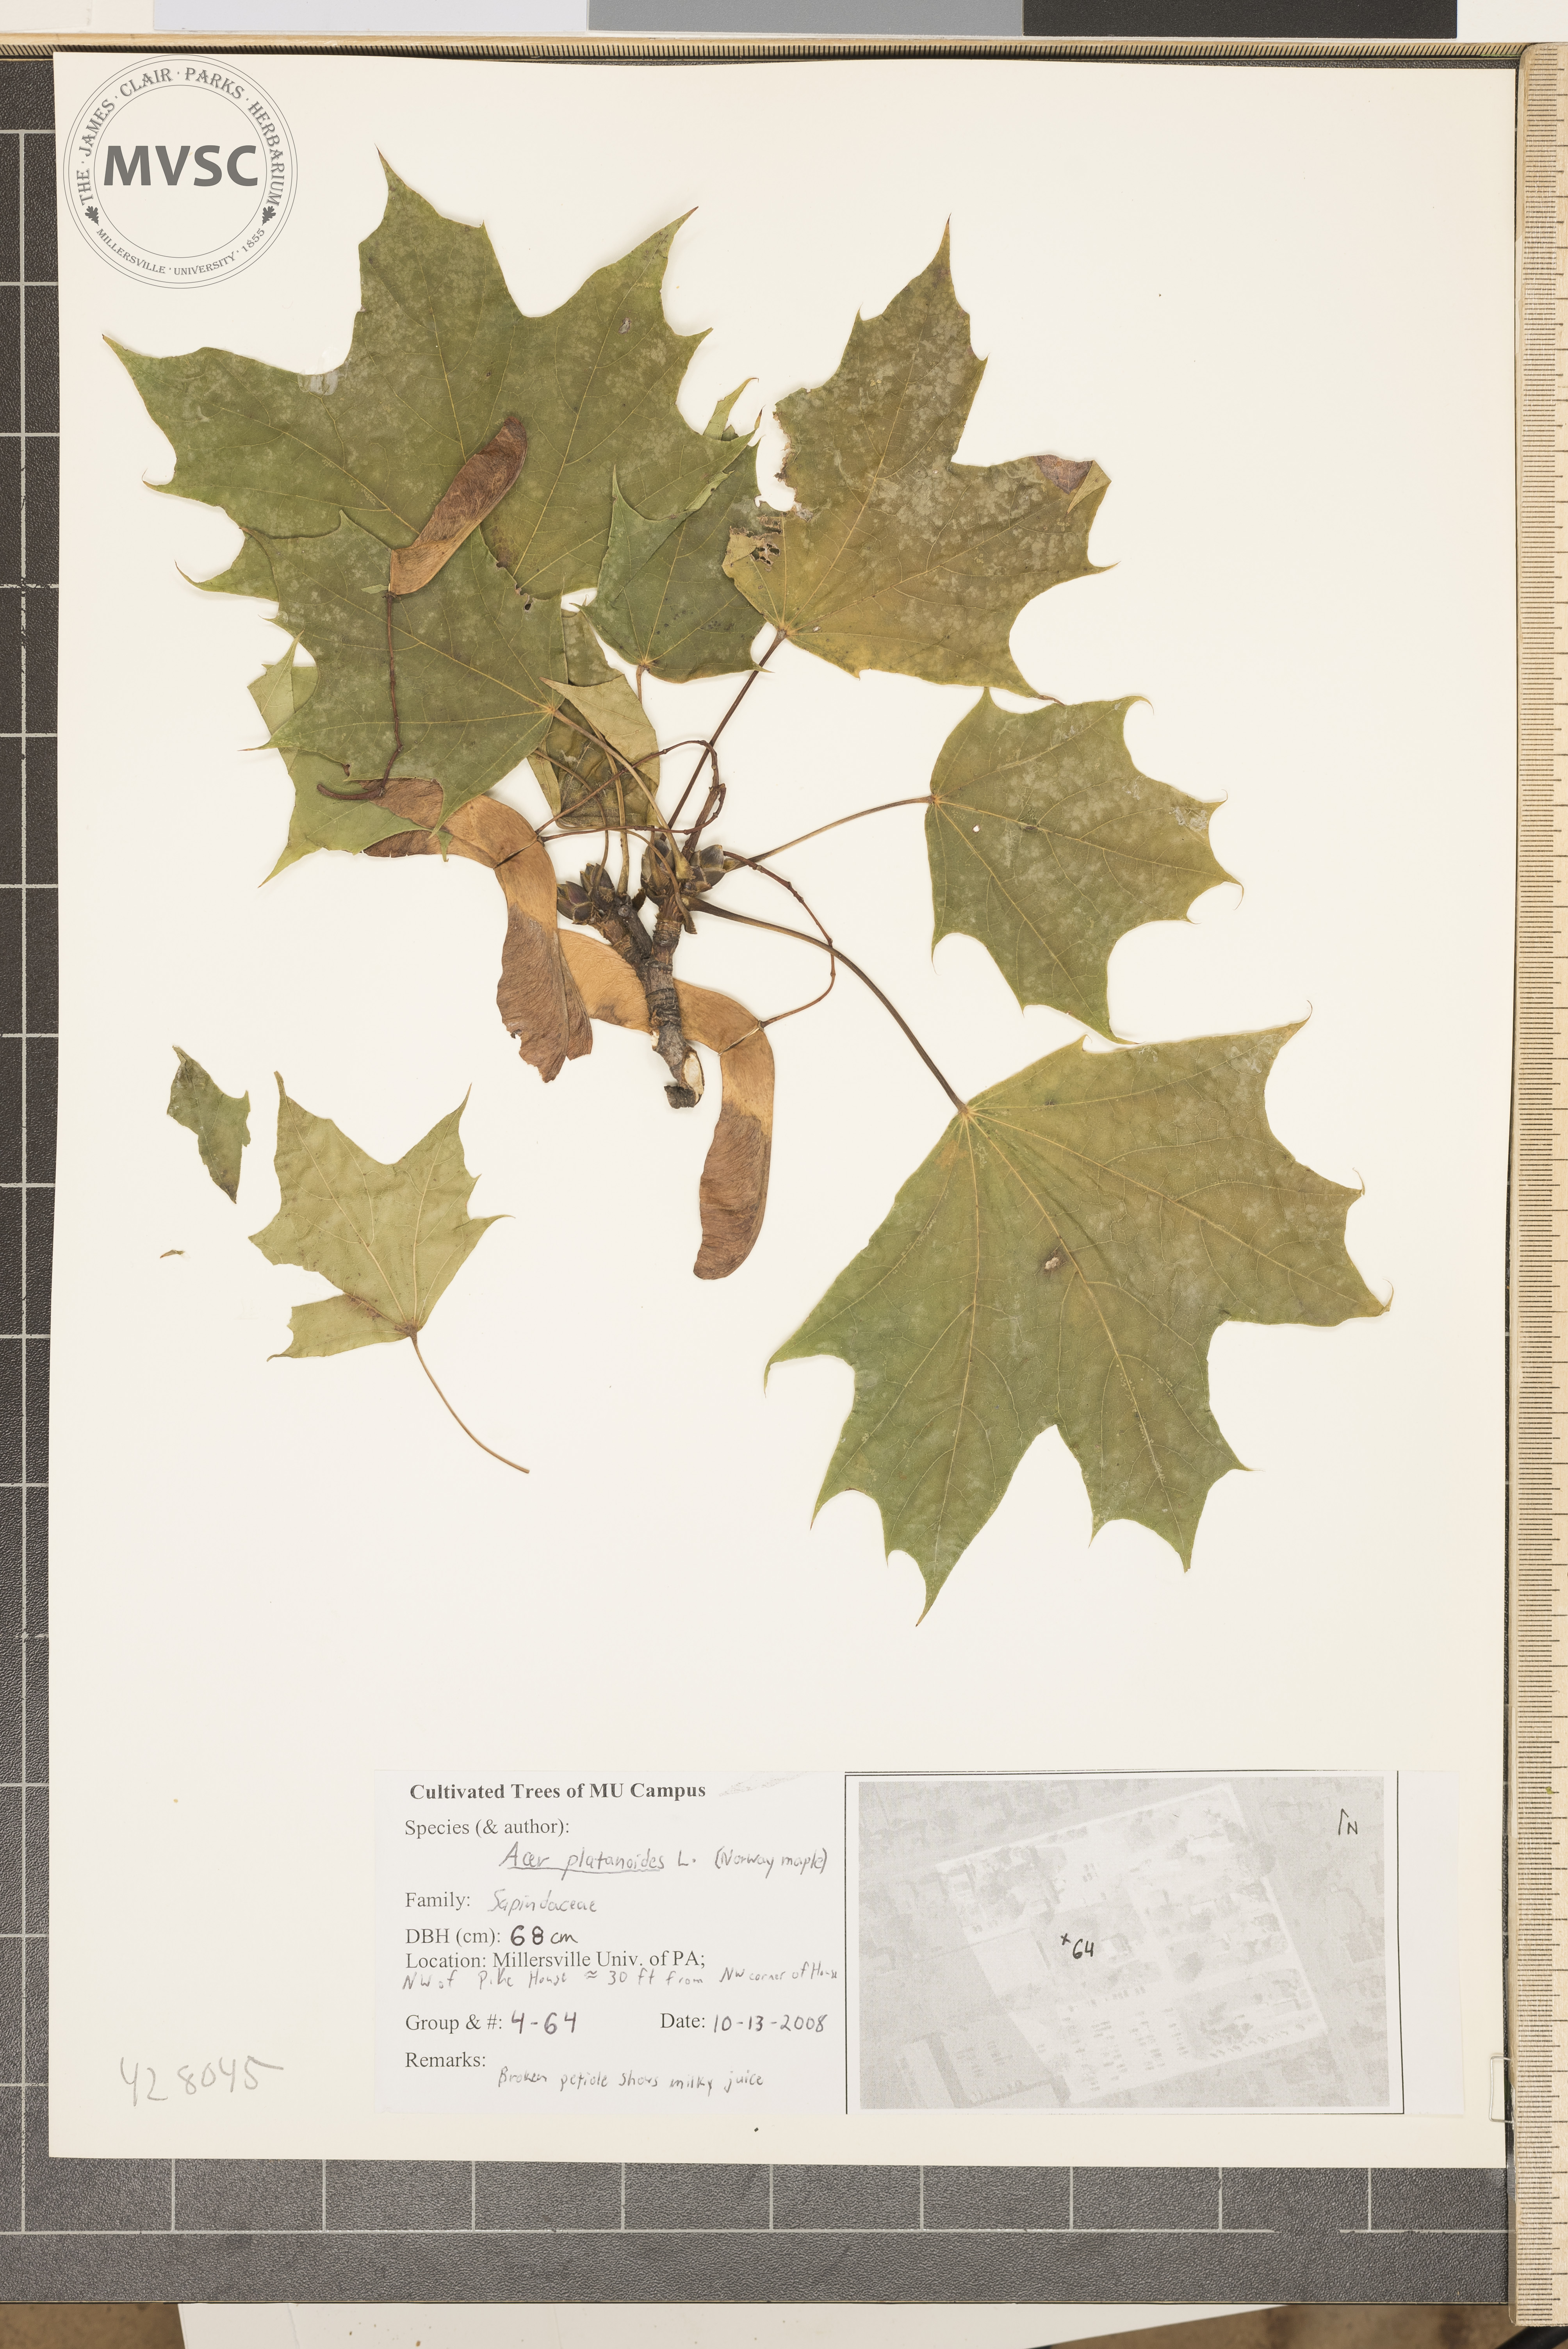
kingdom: Plantae
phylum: Tracheophyta
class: Magnoliopsida
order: Sapindales
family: Sapindaceae
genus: Acer
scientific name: Acer platanoides
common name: Norway Maple
